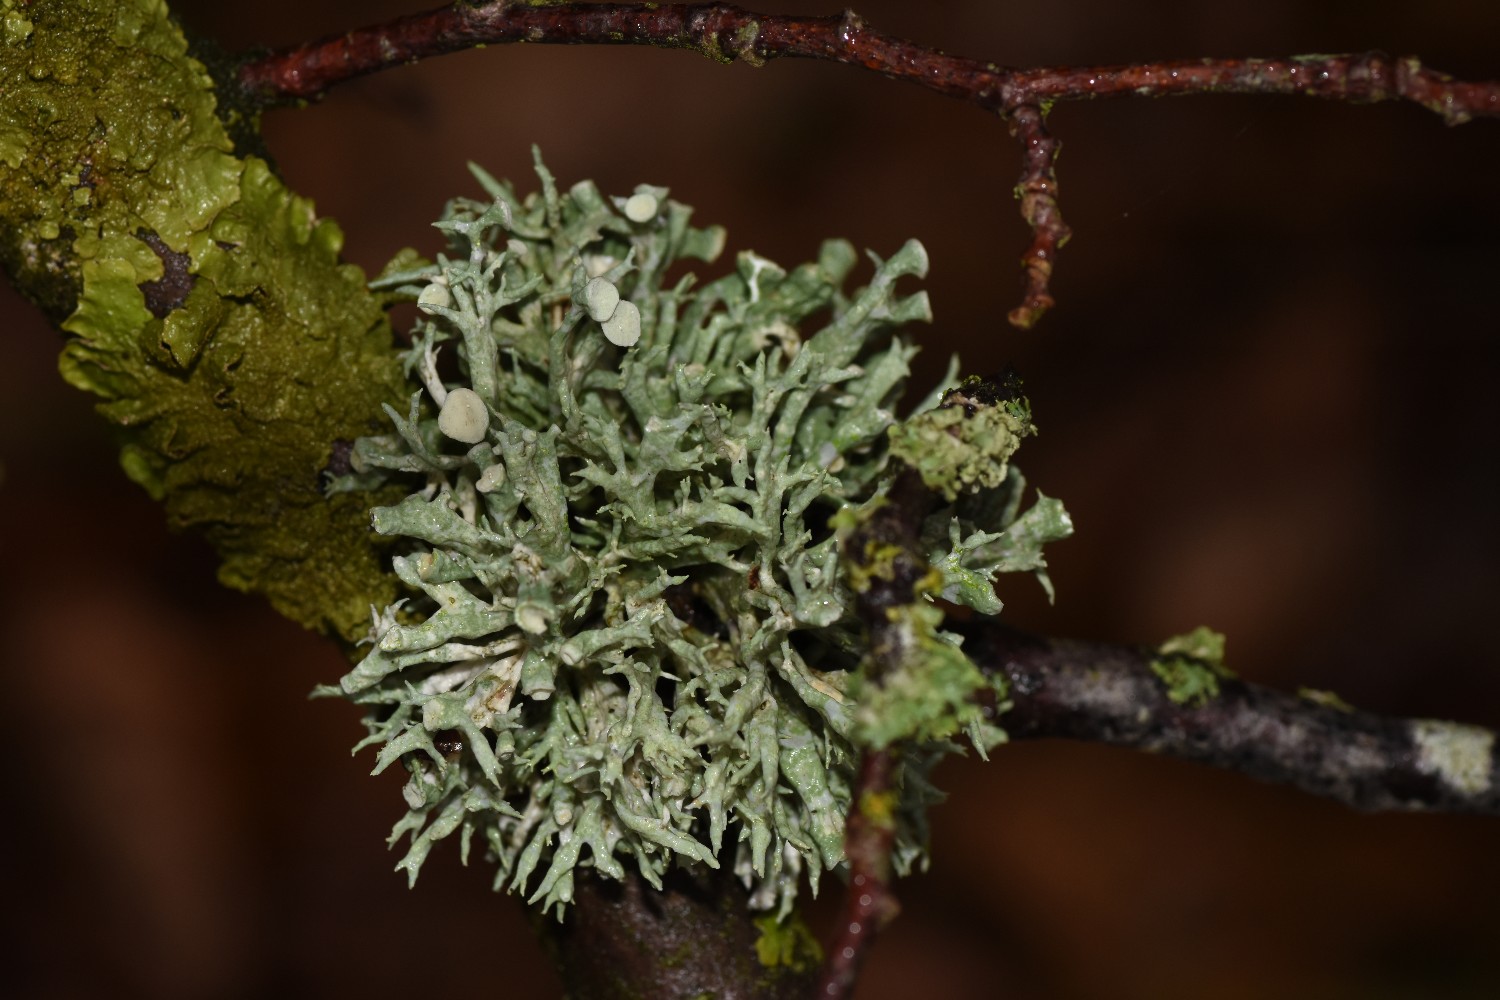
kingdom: Fungi
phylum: Ascomycota
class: Lecanoromycetes
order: Lecanorales
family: Ramalinaceae
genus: Ramalina
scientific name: Ramalina fastigiata
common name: tue-grenlav
